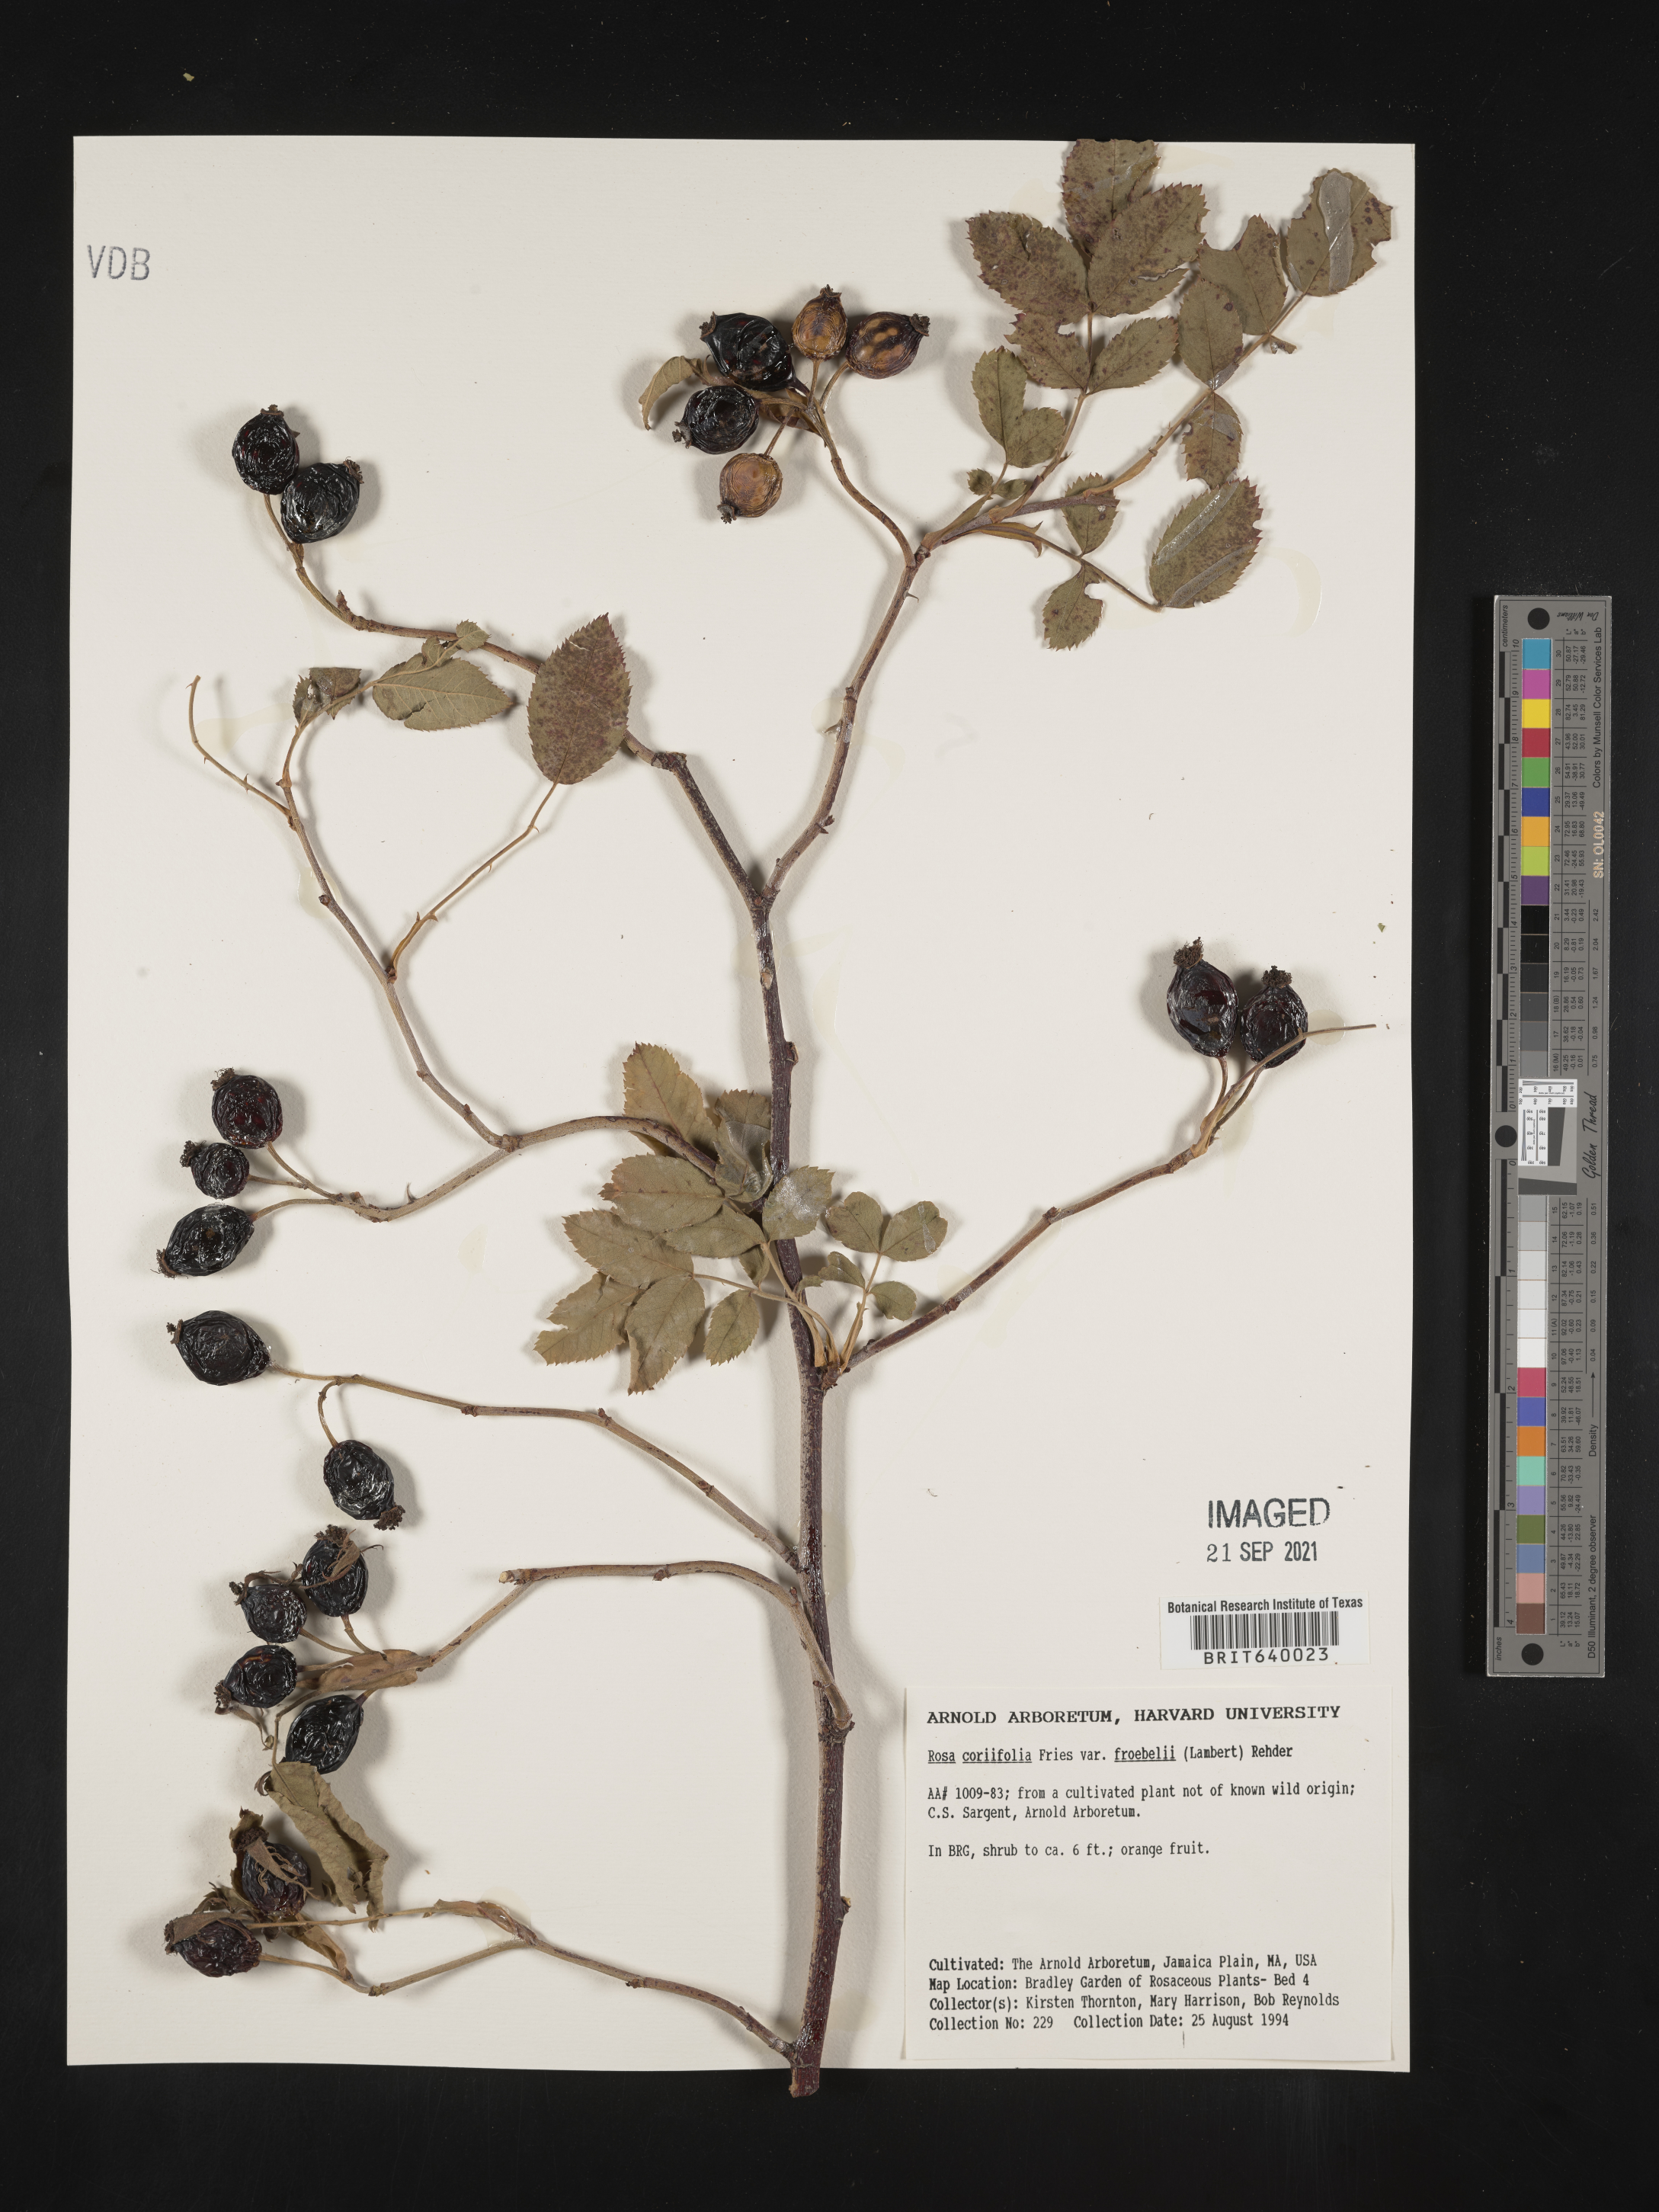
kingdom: Plantae
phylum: Tracheophyta
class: Magnoliopsida
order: Rosales
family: Rosaceae
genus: Rosa
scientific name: Rosa
